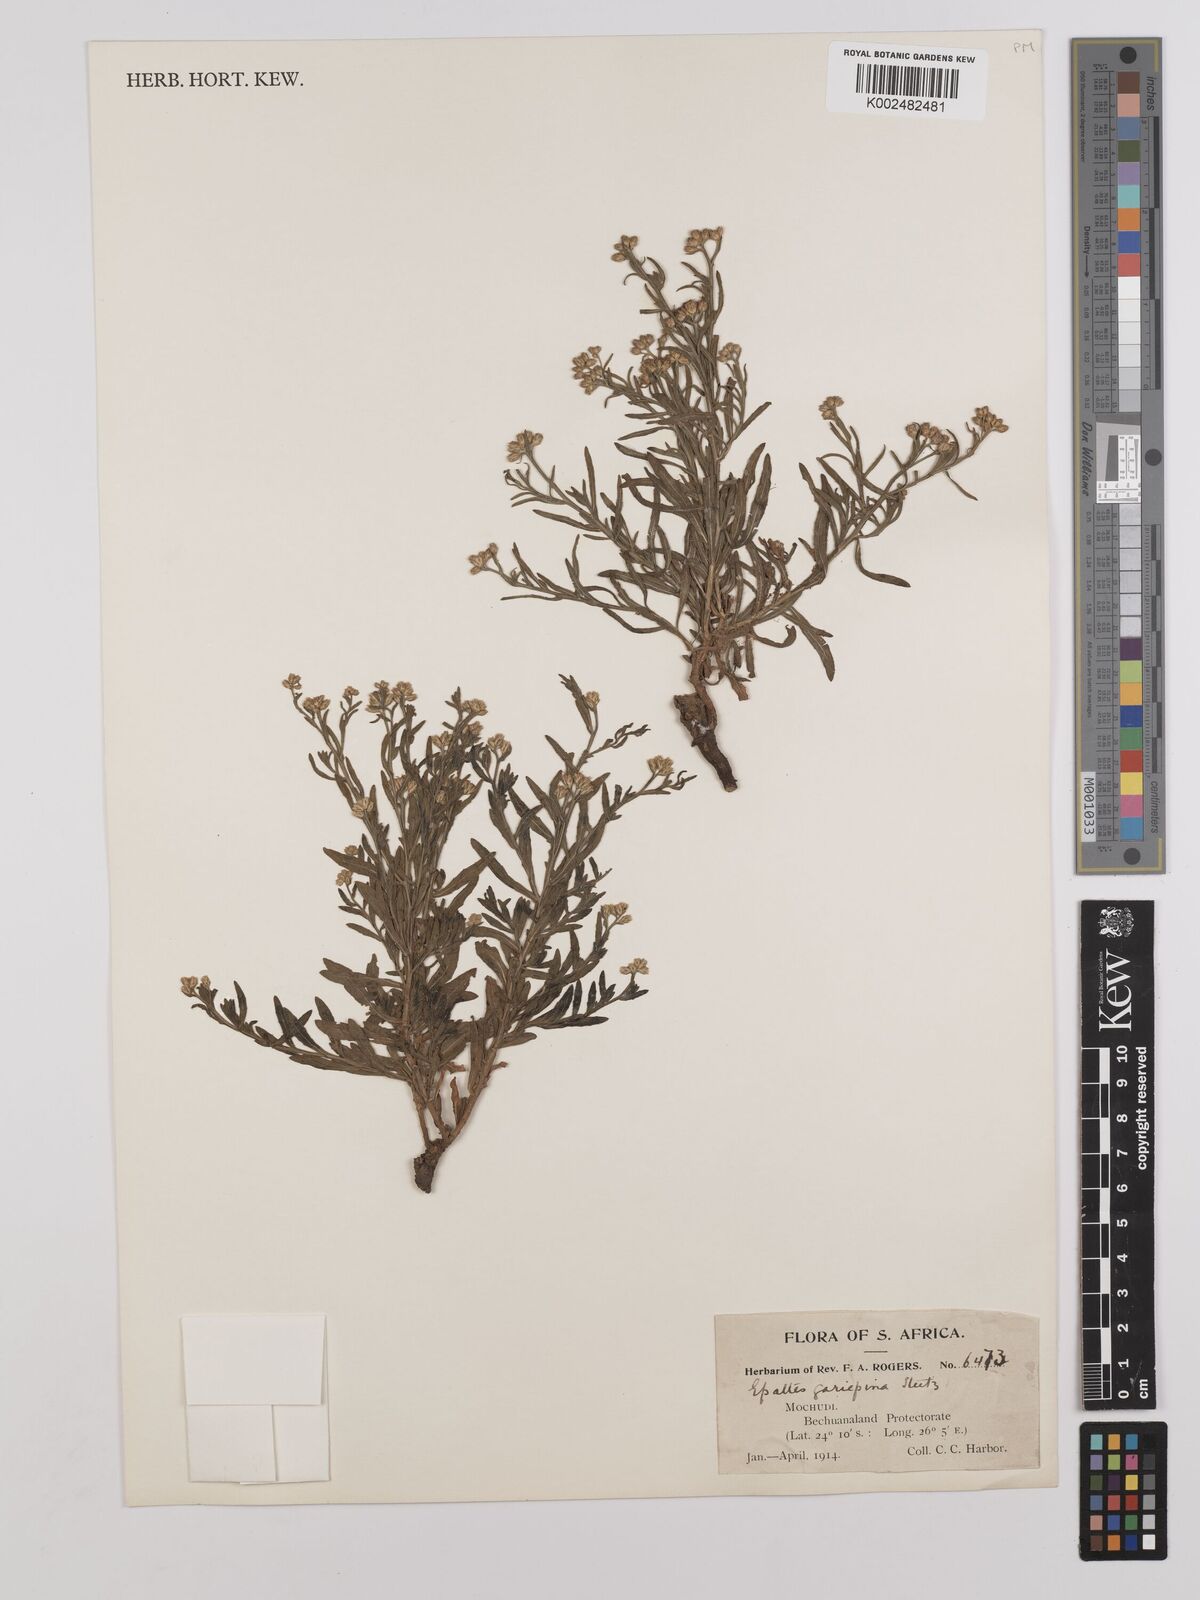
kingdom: Plantae
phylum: Tracheophyta
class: Magnoliopsida
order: Asterales
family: Asteraceae
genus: Litogyne
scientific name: Litogyne gariepina
